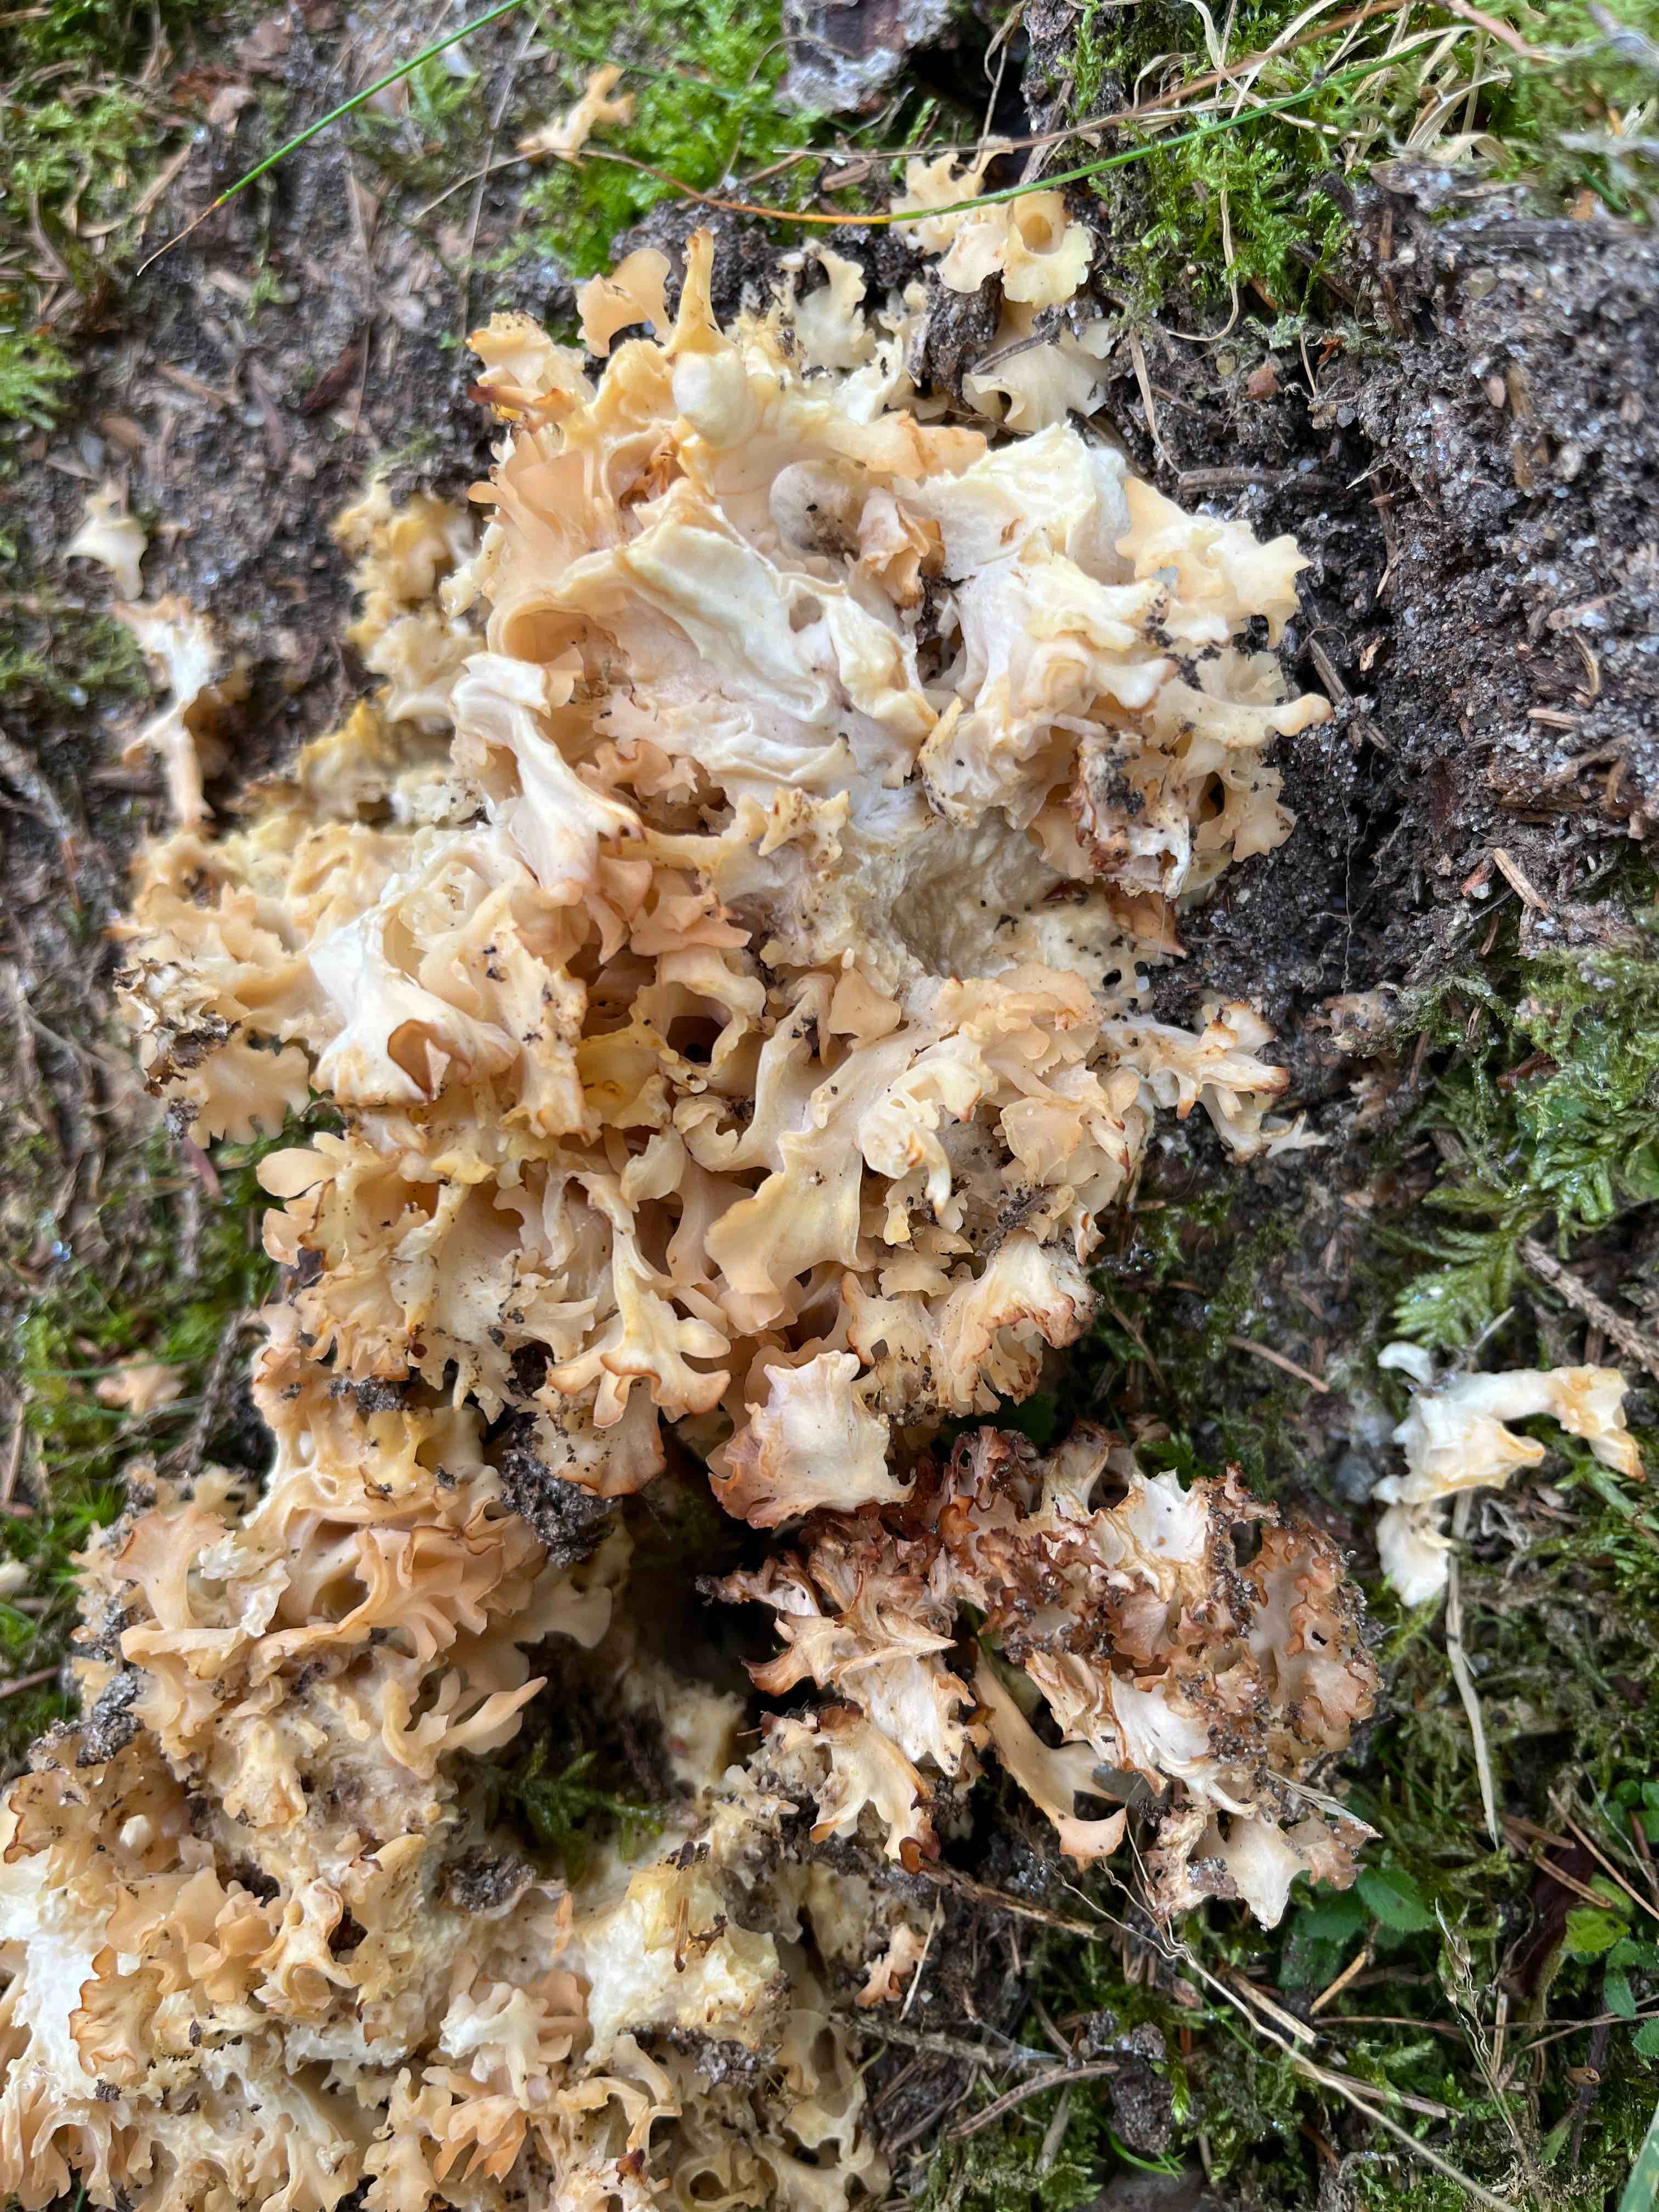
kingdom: Fungi
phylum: Basidiomycota
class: Agaricomycetes
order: Polyporales
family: Sparassidaceae
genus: Sparassis
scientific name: Sparassis crispa
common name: kruset blomkålssvamp
